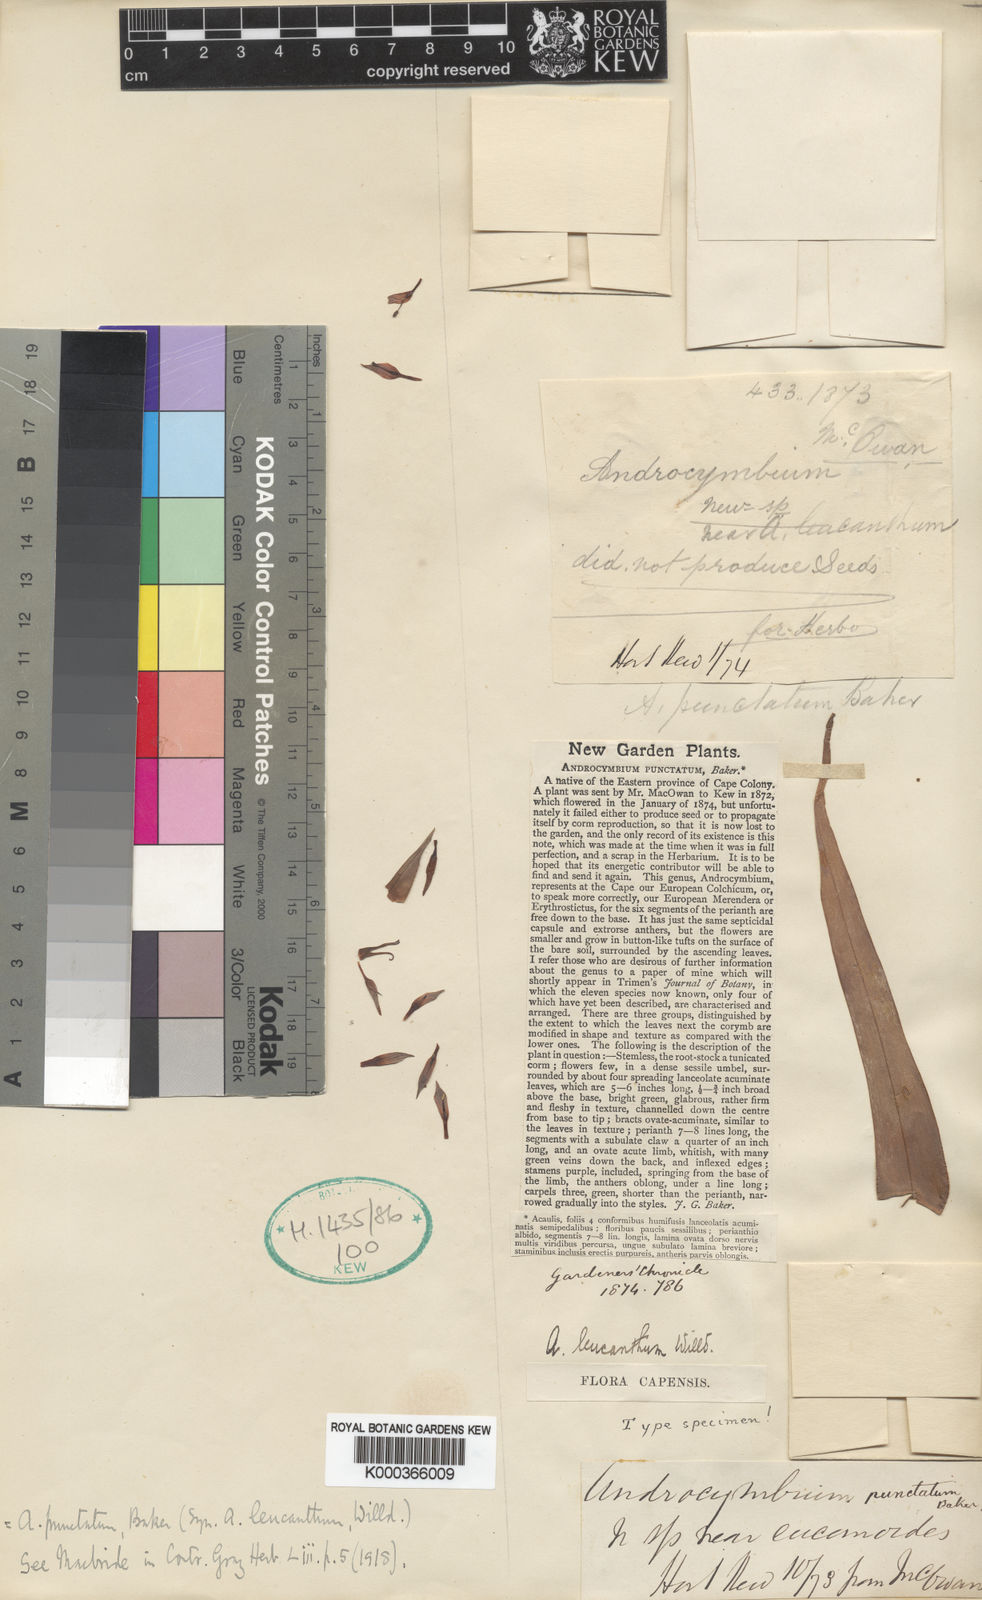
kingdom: Plantae
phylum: Tracheophyta
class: Liliopsida
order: Liliales
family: Colchicaceae
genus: Colchicum
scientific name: Colchicum capense
